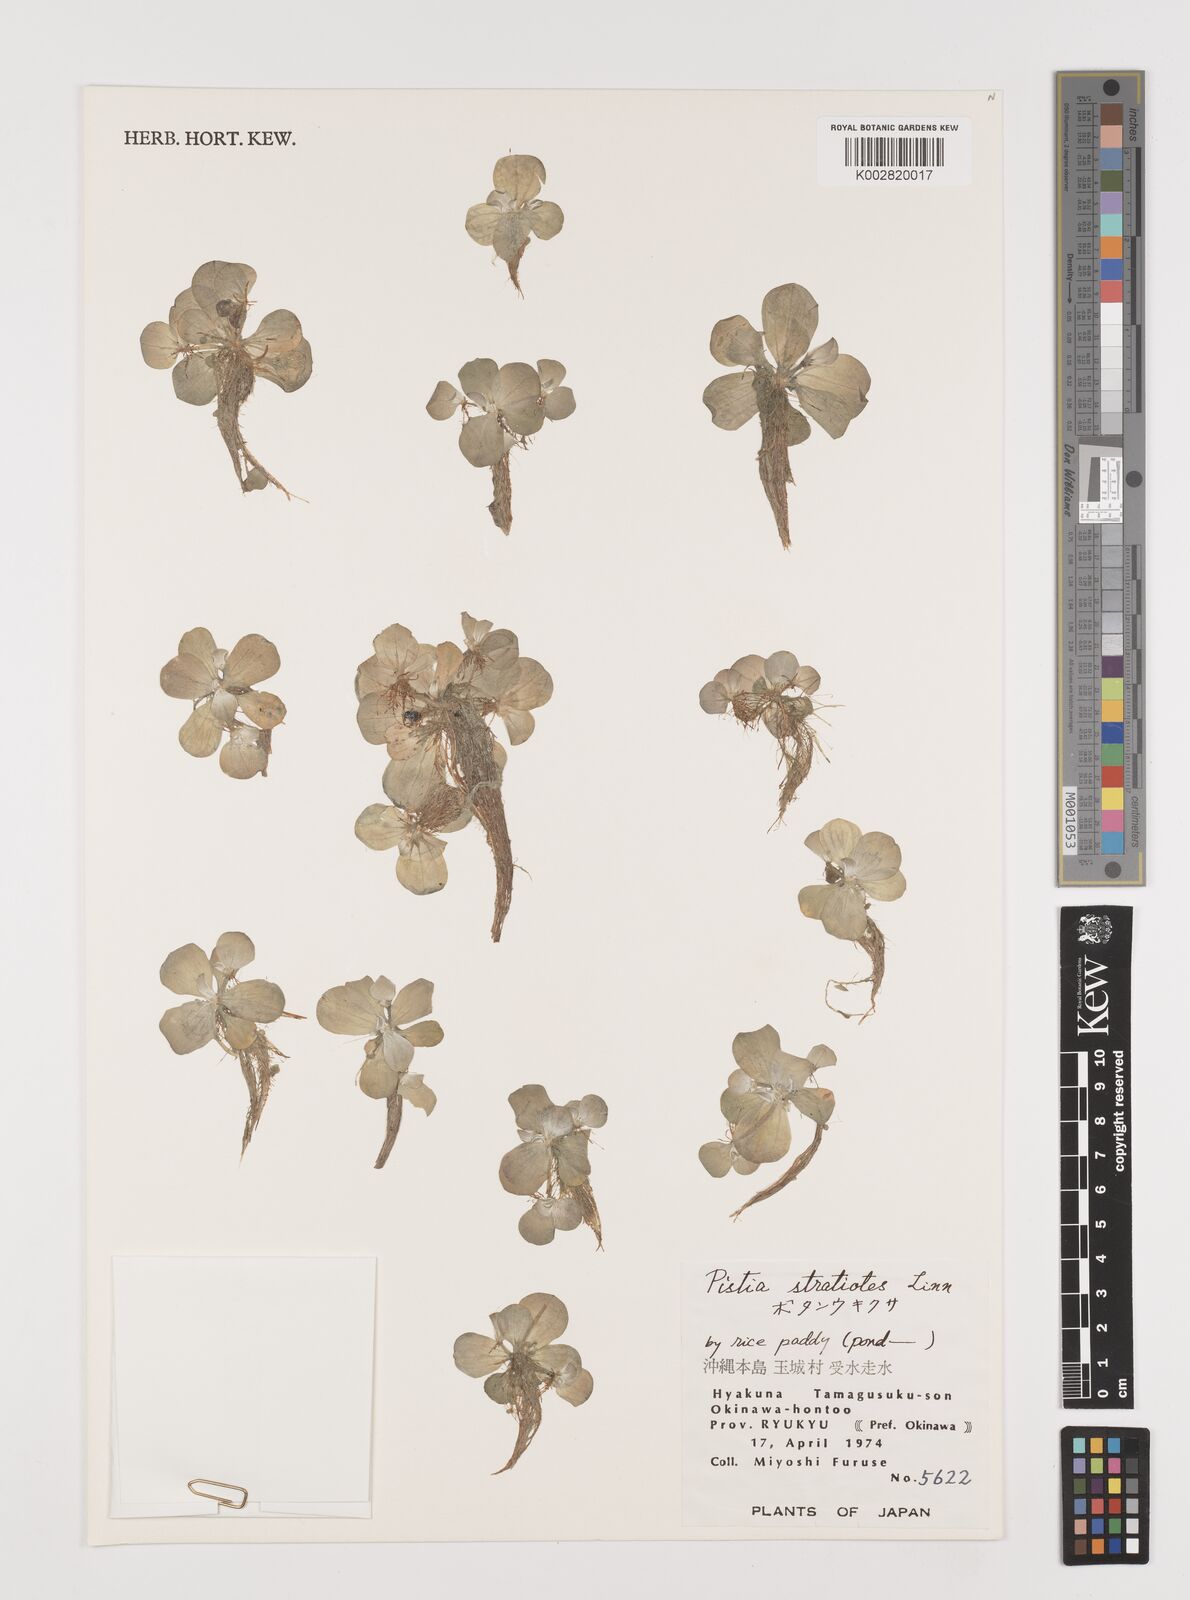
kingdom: Plantae
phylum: Tracheophyta
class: Liliopsida
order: Alismatales
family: Araceae
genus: Pistia
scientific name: Pistia stratiotes
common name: Water lettuce
